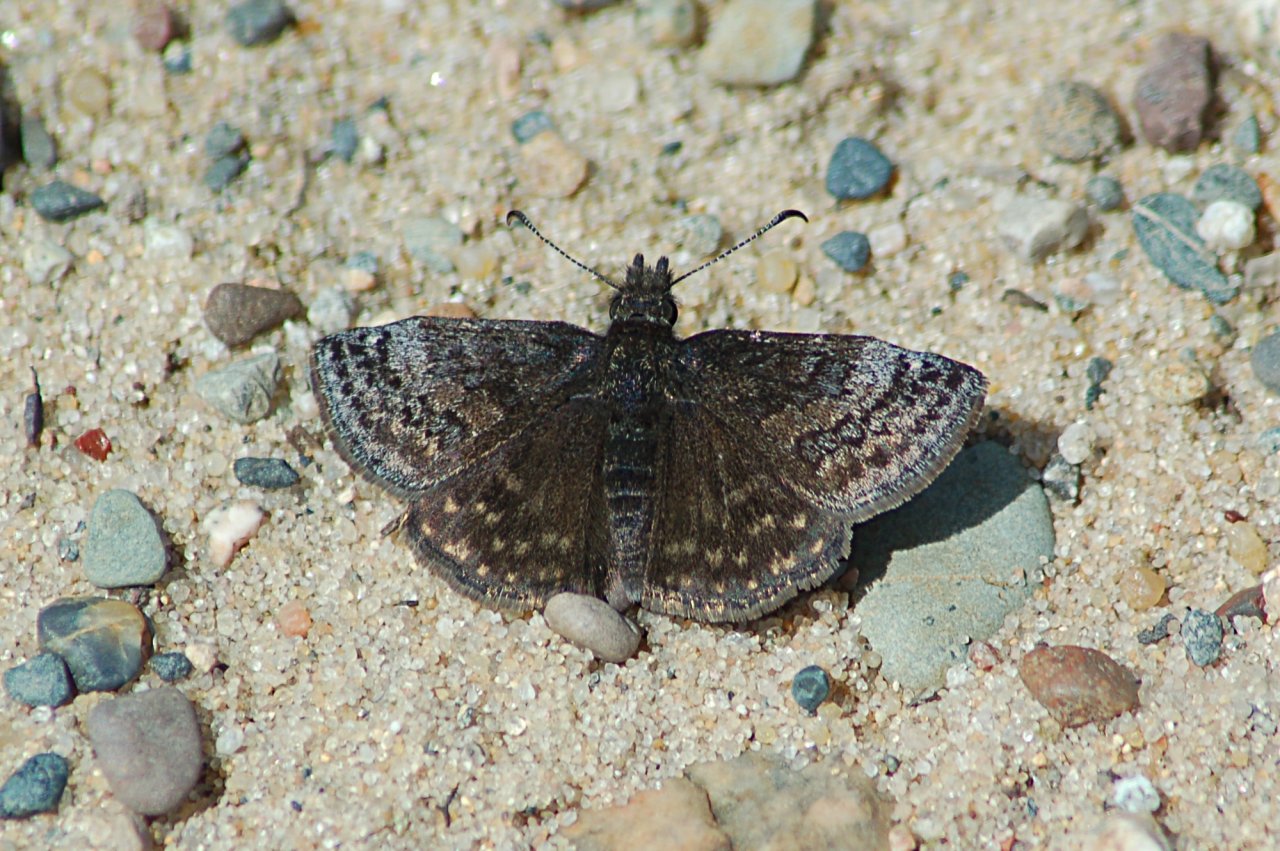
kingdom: Animalia
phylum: Arthropoda
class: Insecta
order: Lepidoptera
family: Hesperiidae
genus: Erynnis
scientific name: Erynnis icelus
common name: Dreamy Duskywing
